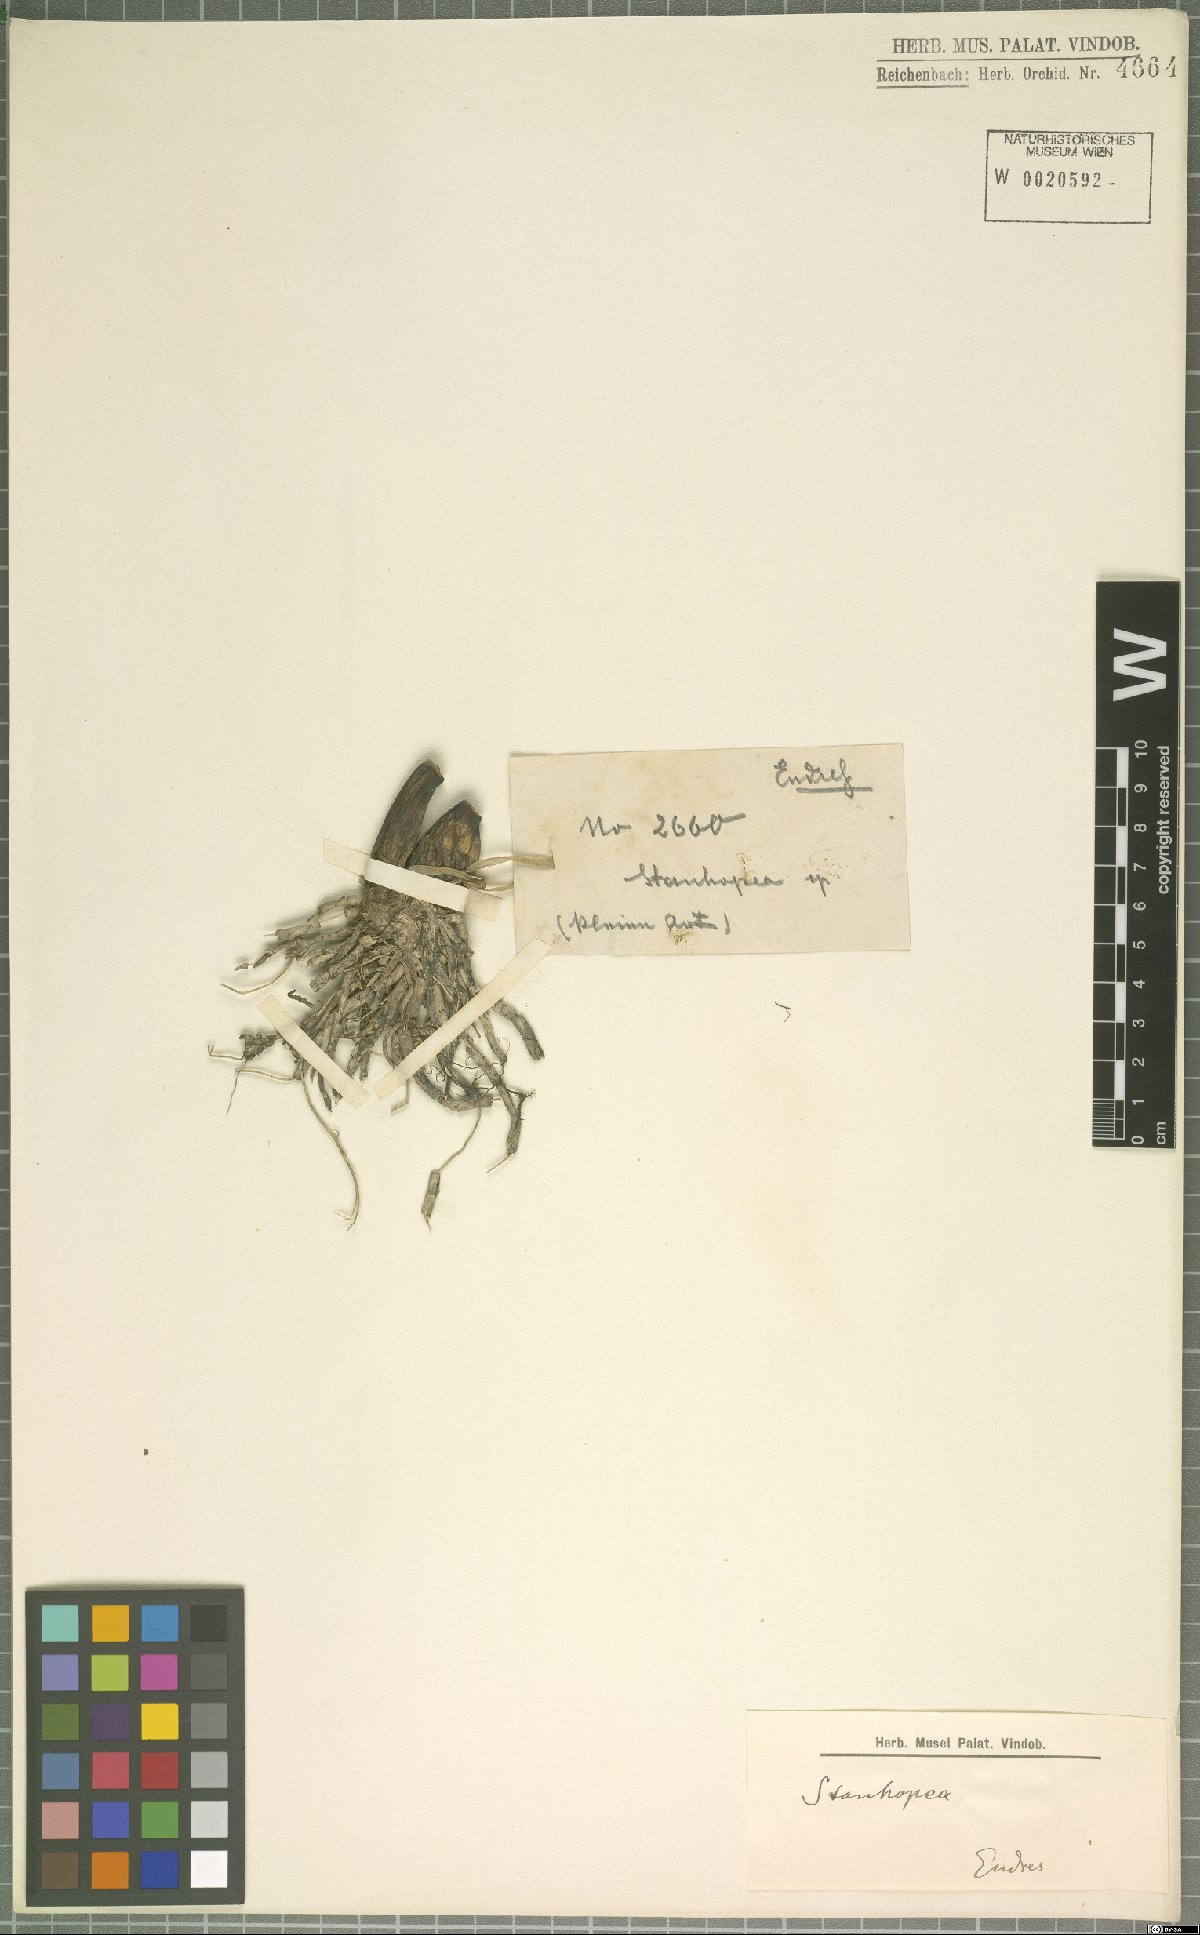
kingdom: Plantae
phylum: Tracheophyta
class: Liliopsida
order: Asparagales
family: Orchidaceae
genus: Stanhopea
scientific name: Stanhopea
